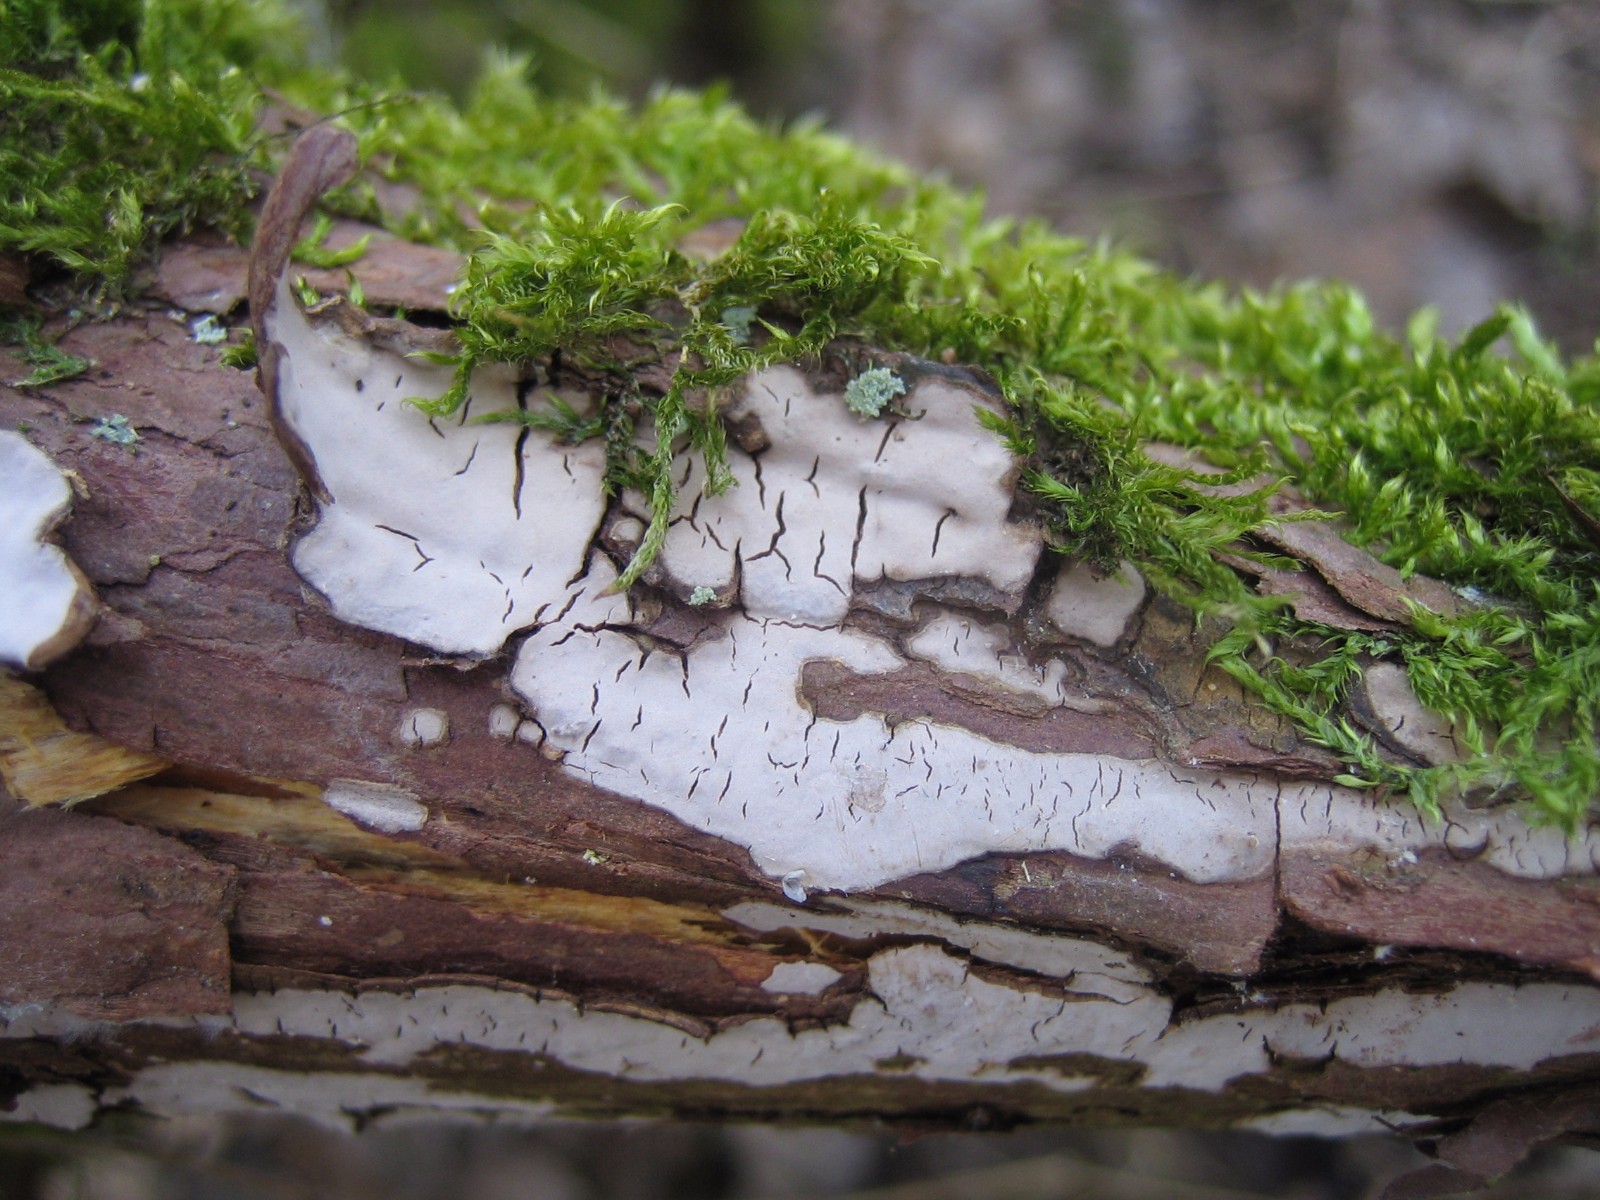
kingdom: Fungi
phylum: Basidiomycota
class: Agaricomycetes
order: Russulales
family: Echinodontiaceae
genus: Amylostereum
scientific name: Amylostereum laevigatum
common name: ene-lædersvamp
